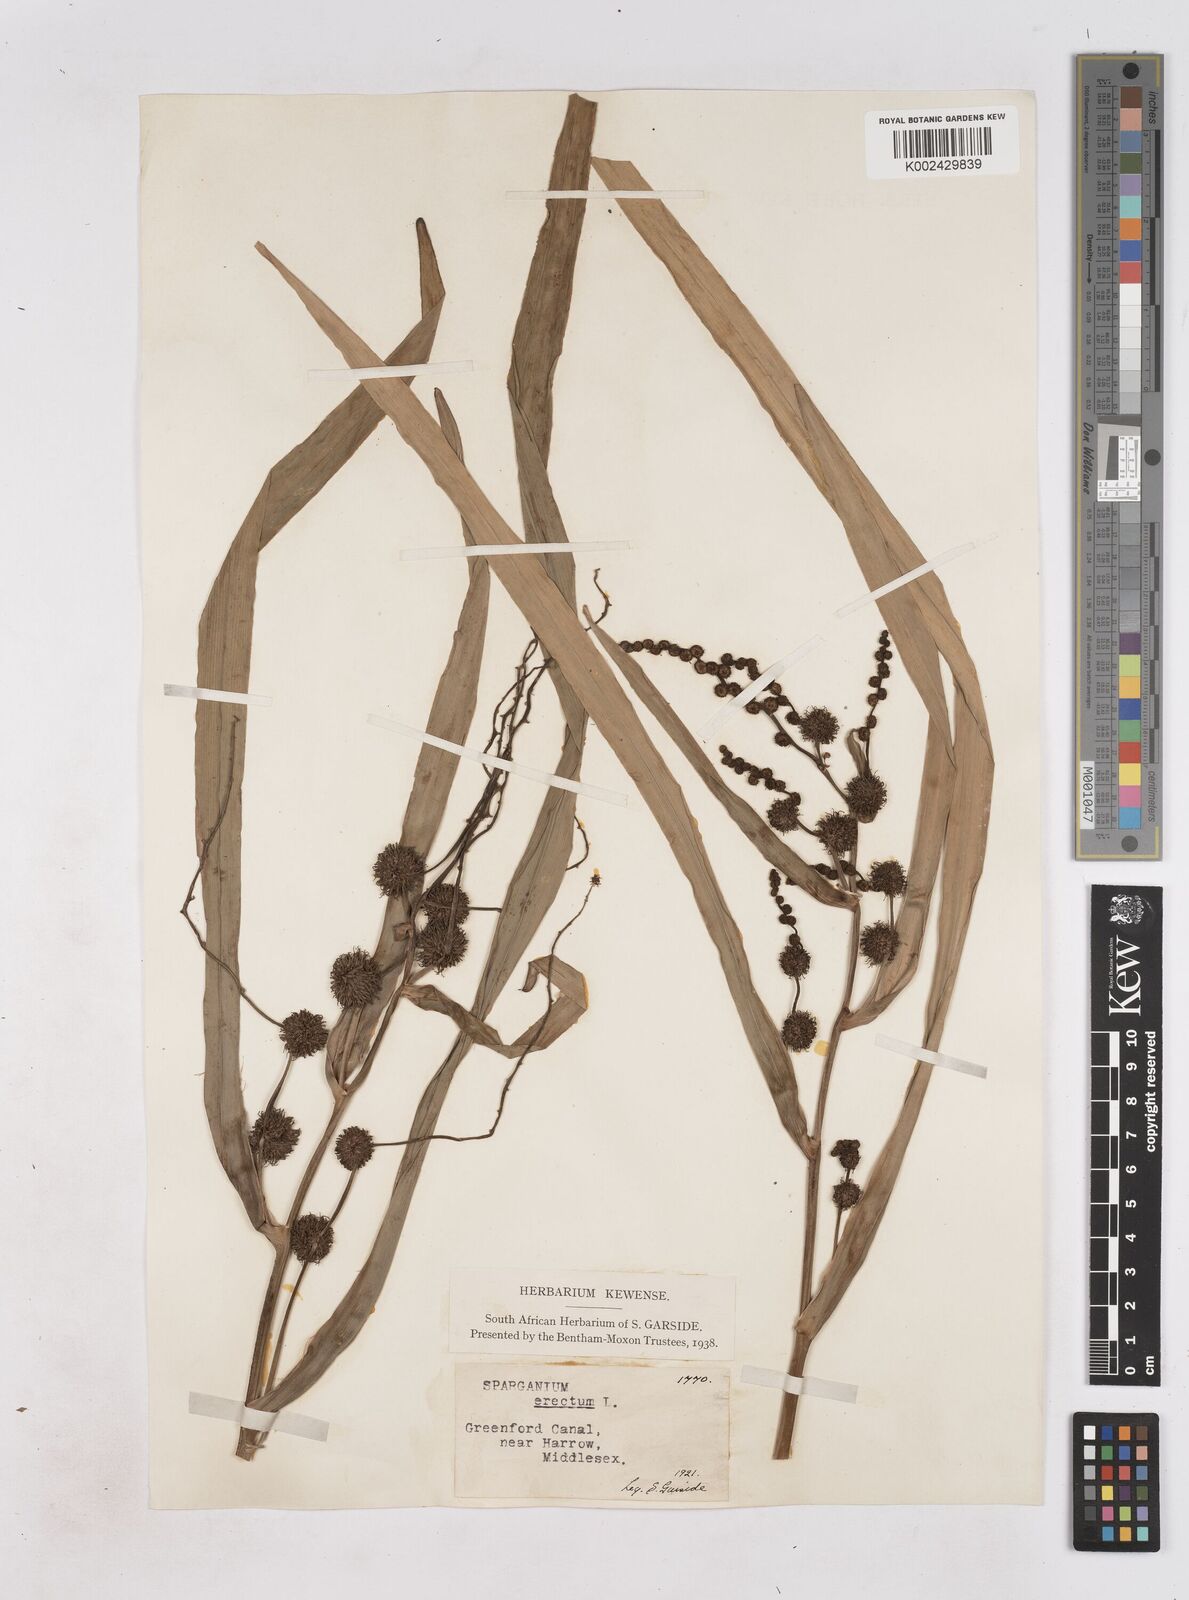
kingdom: Plantae
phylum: Tracheophyta
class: Liliopsida
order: Poales
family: Typhaceae
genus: Sparganium
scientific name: Sparganium erectum
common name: Branched bur-reed
